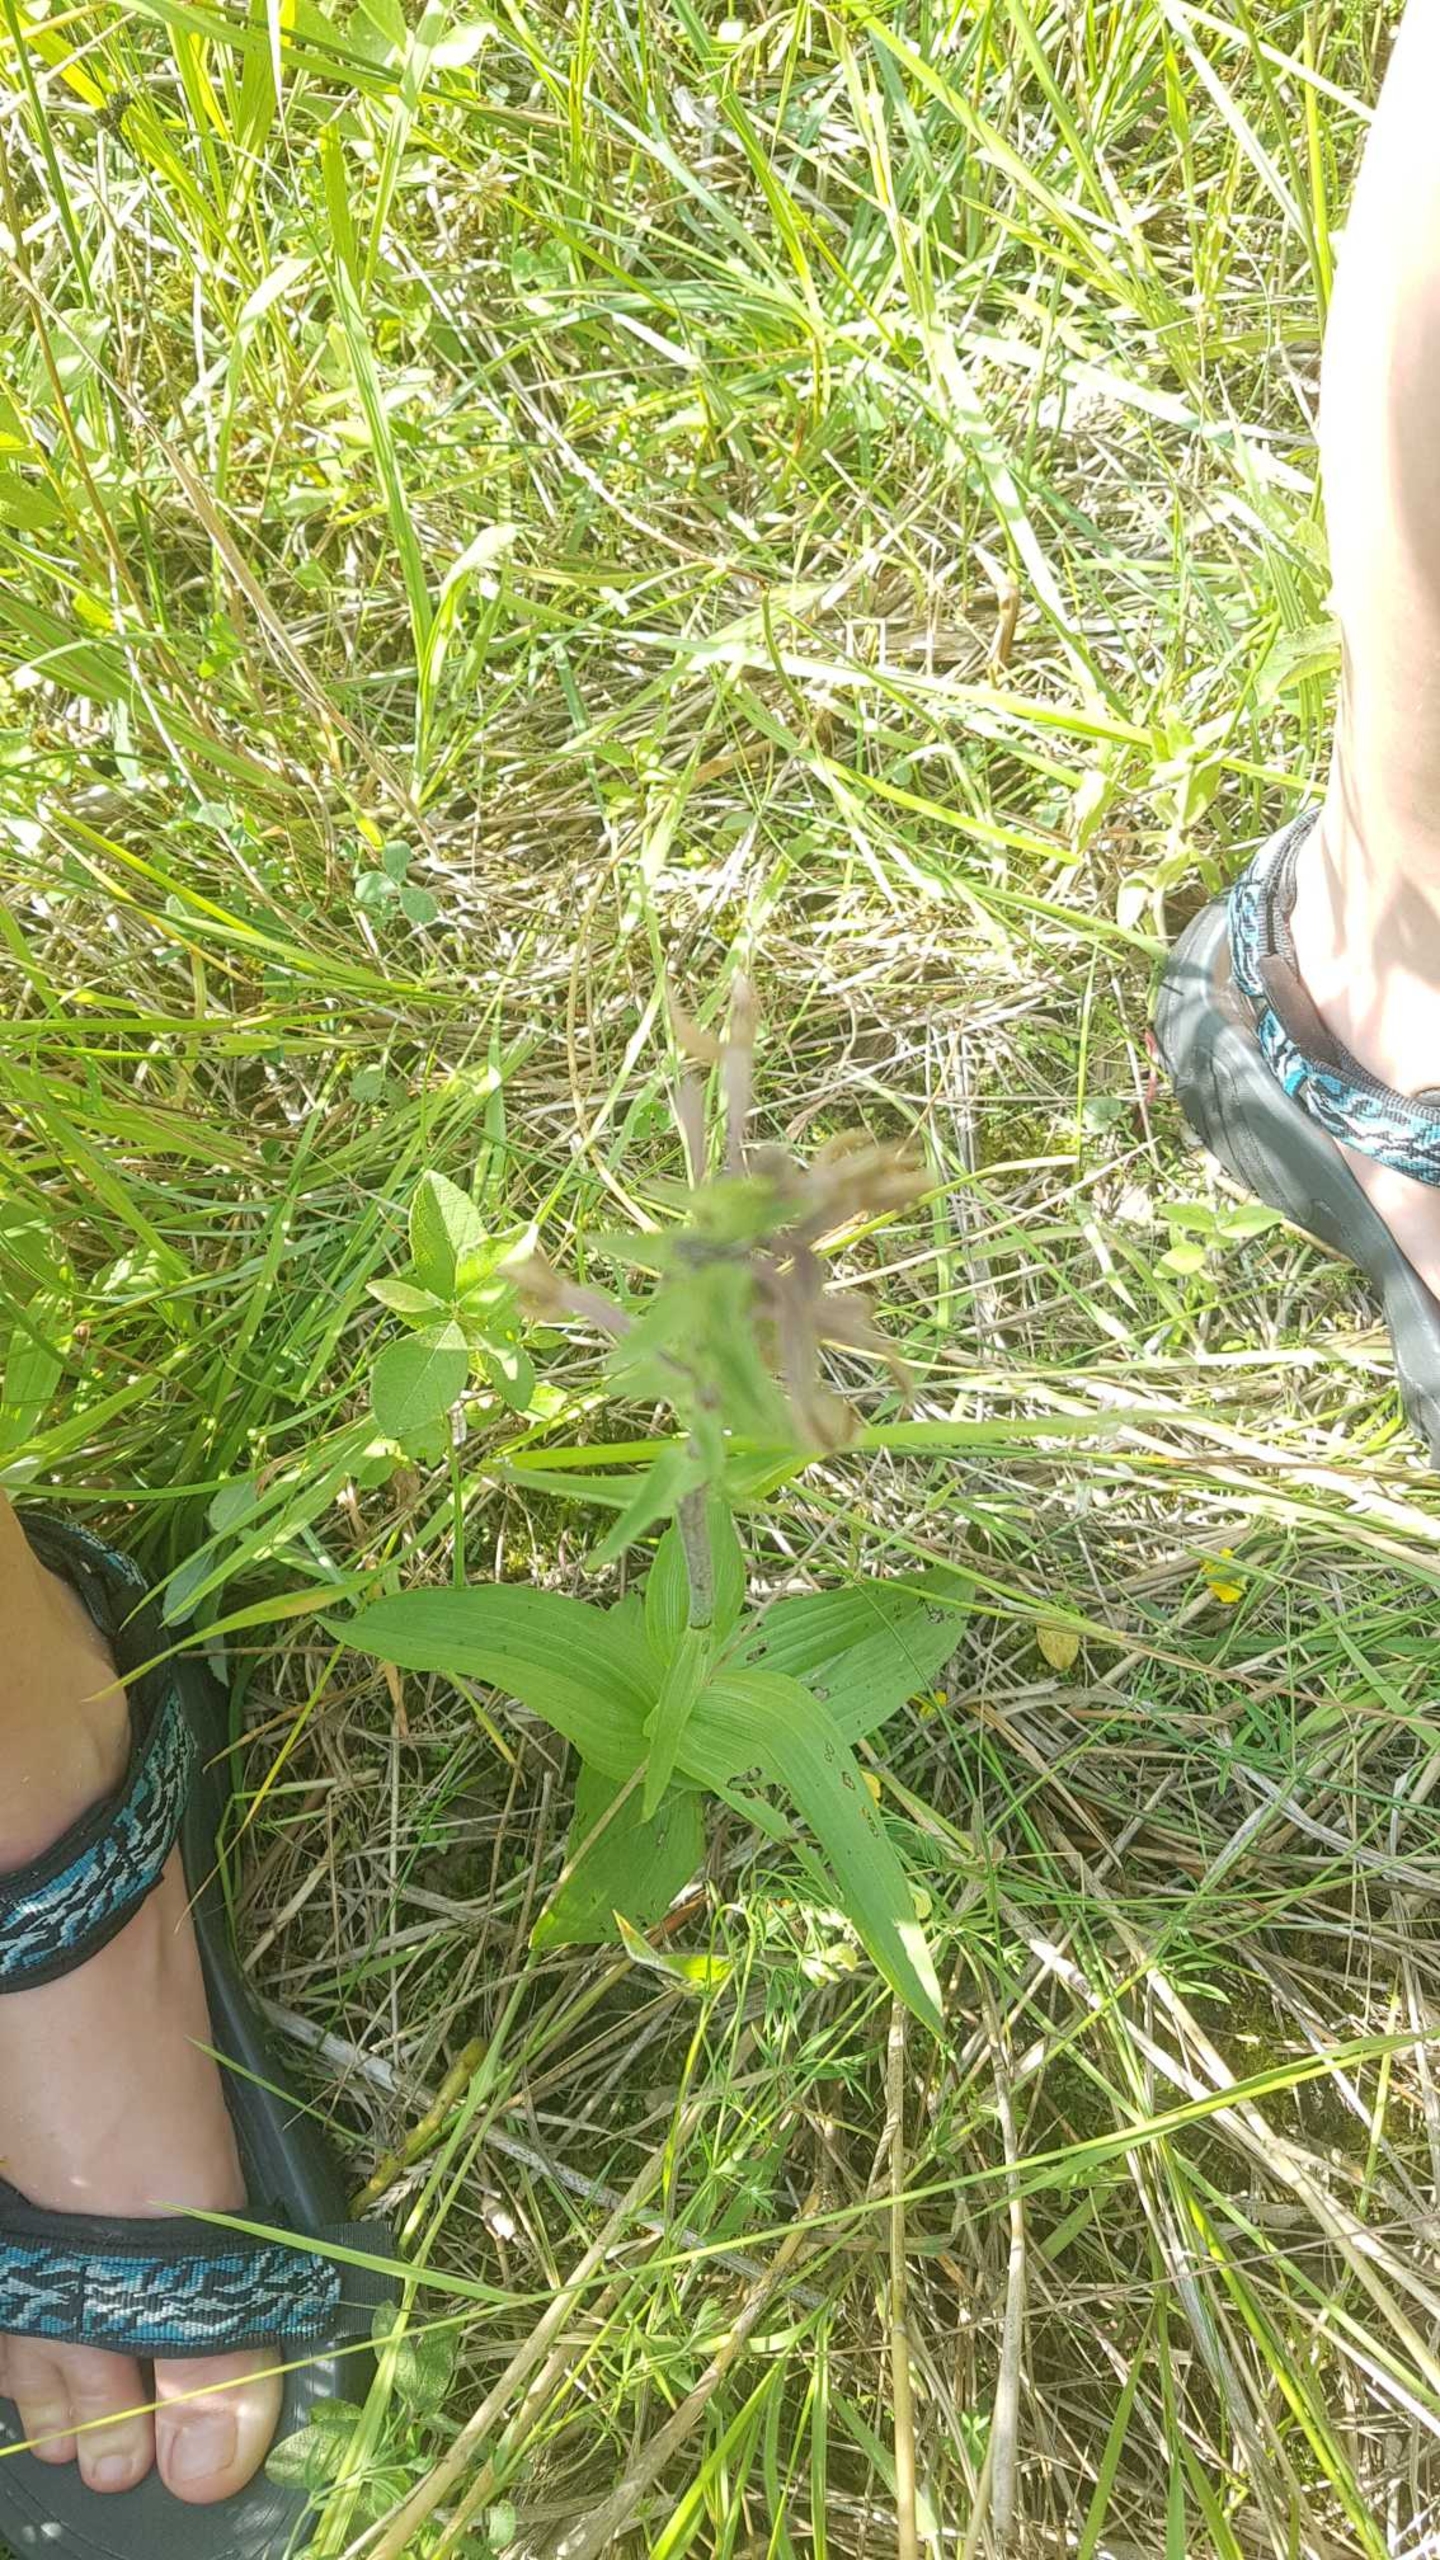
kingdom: Plantae
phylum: Tracheophyta
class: Liliopsida
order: Asparagales
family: Orchidaceae
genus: Epipactis
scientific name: Epipactis palustris
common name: Sump-hullæbe
